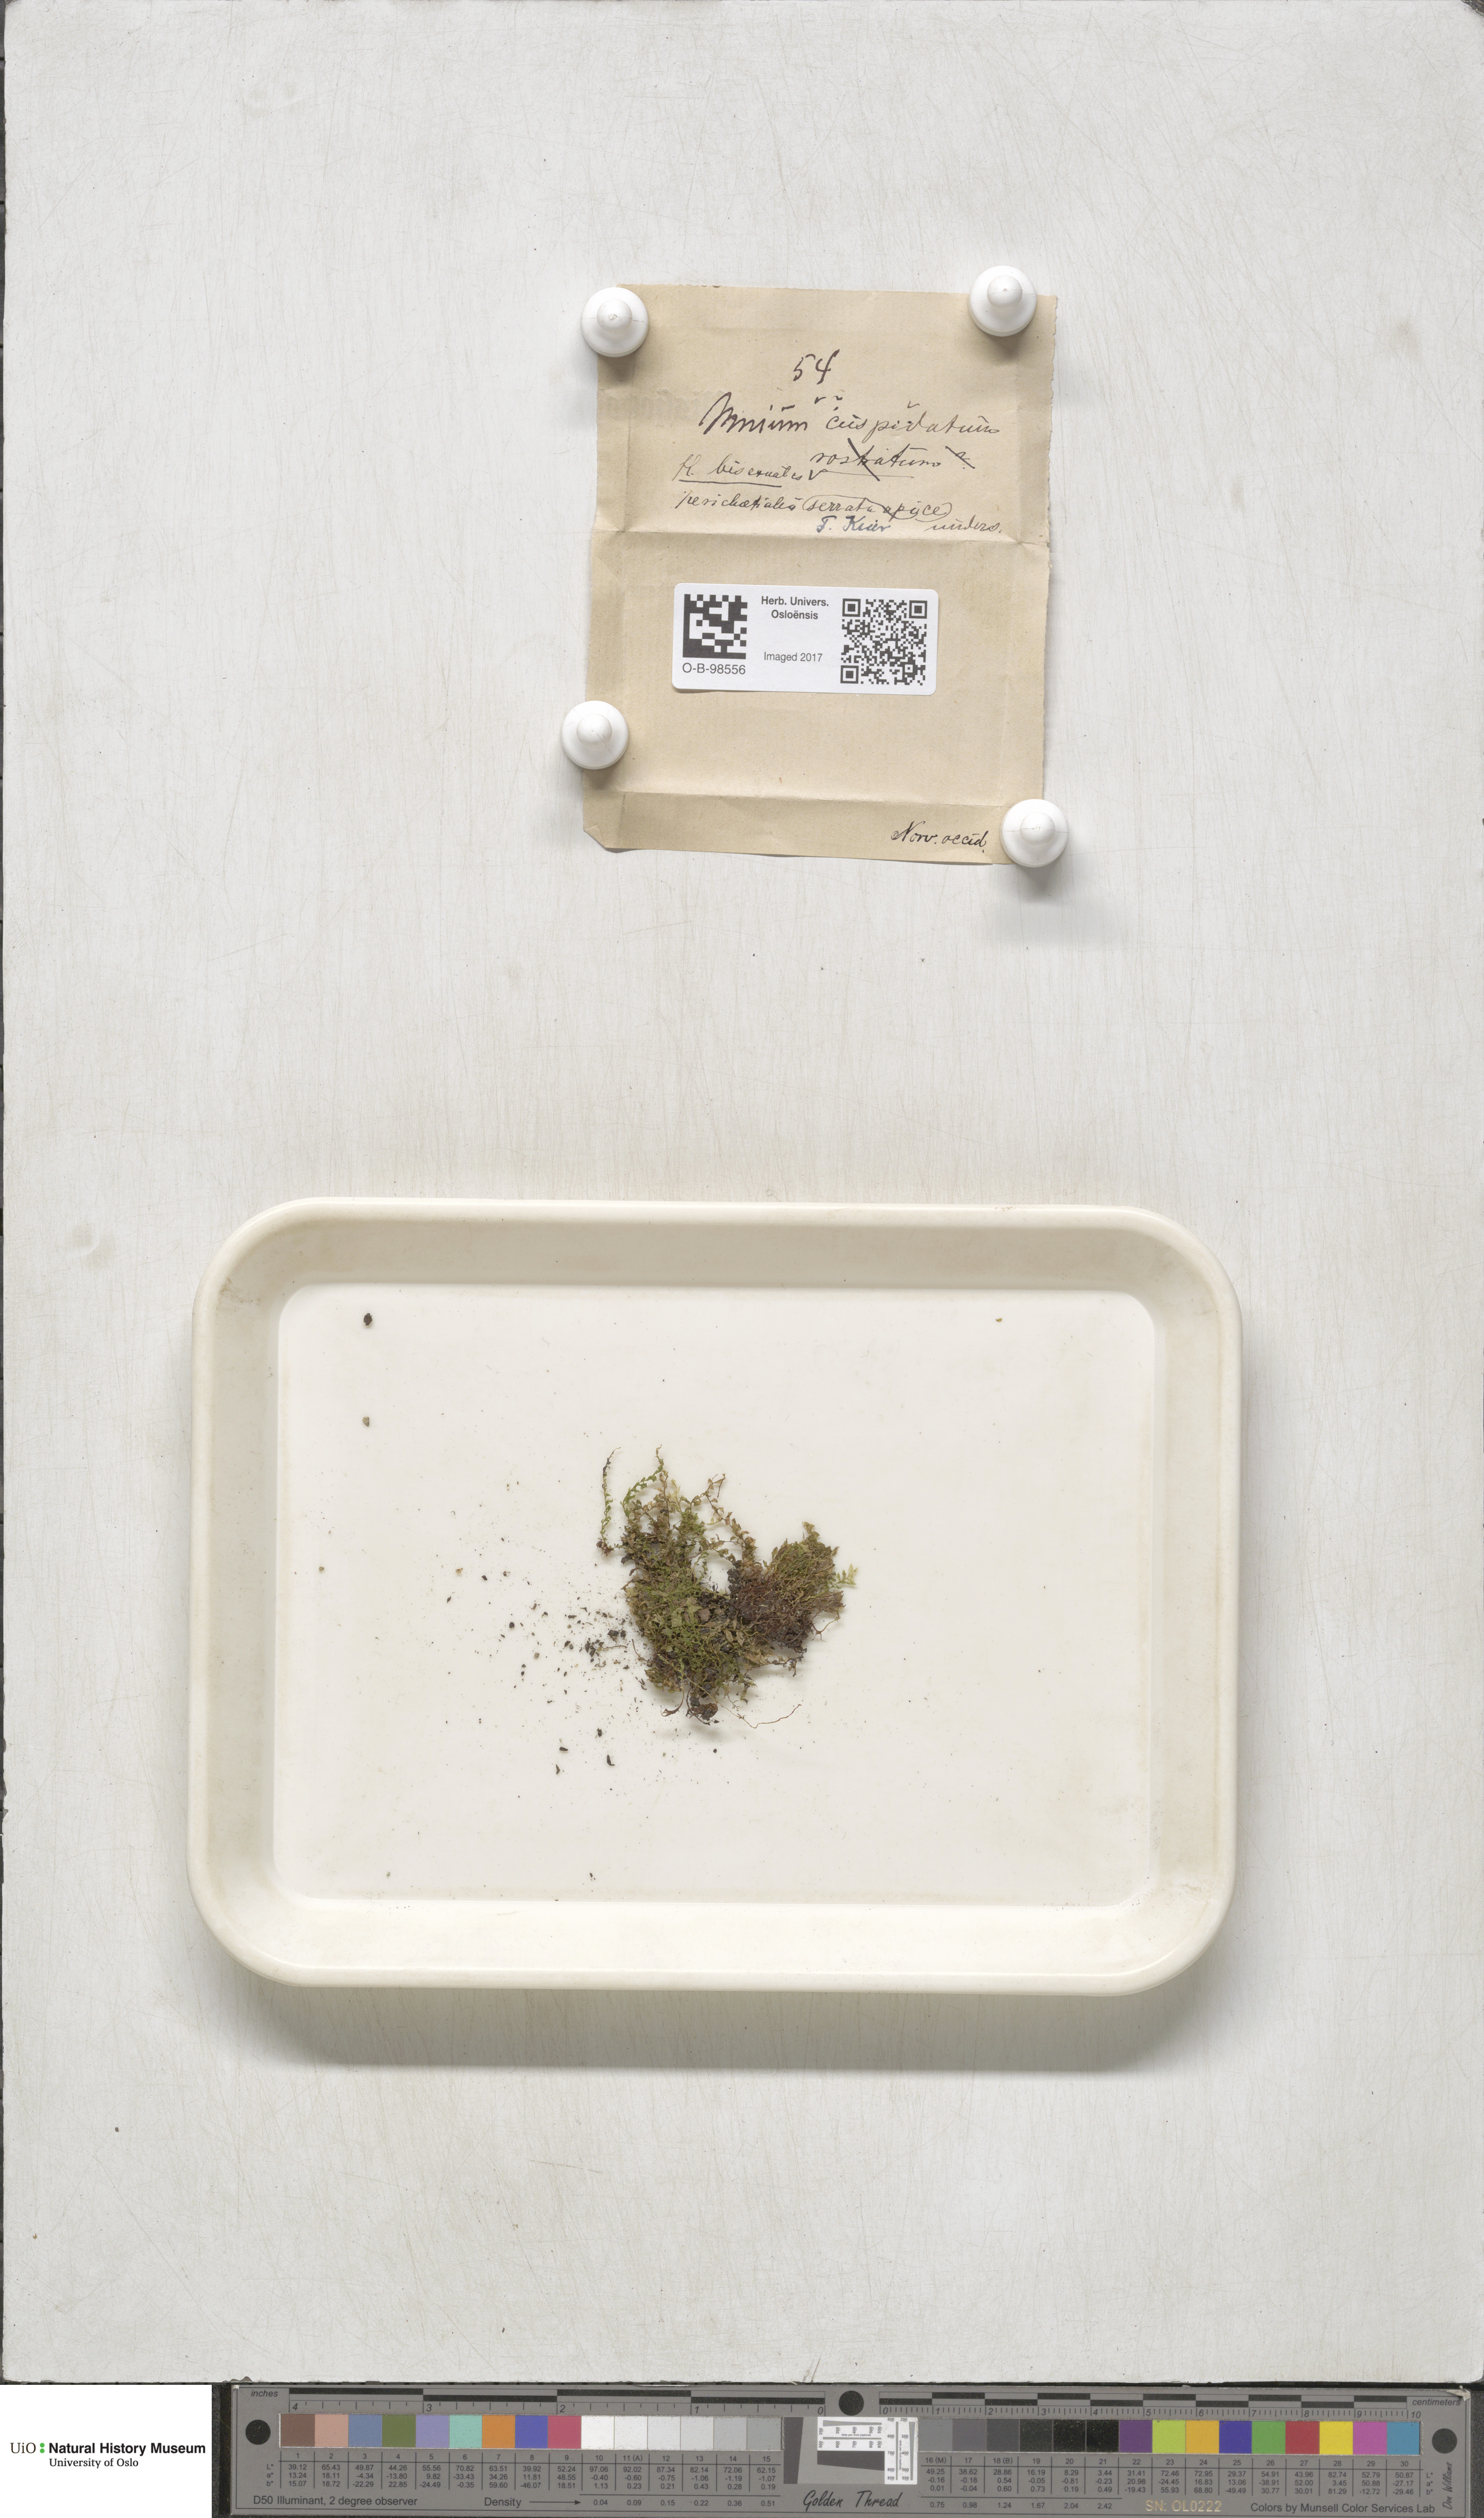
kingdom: Plantae
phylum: Bryophyta
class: Bryopsida
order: Bryales
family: Mniaceae
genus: Plagiomnium
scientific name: Plagiomnium cuspidatum
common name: Woodsy leafy moss
